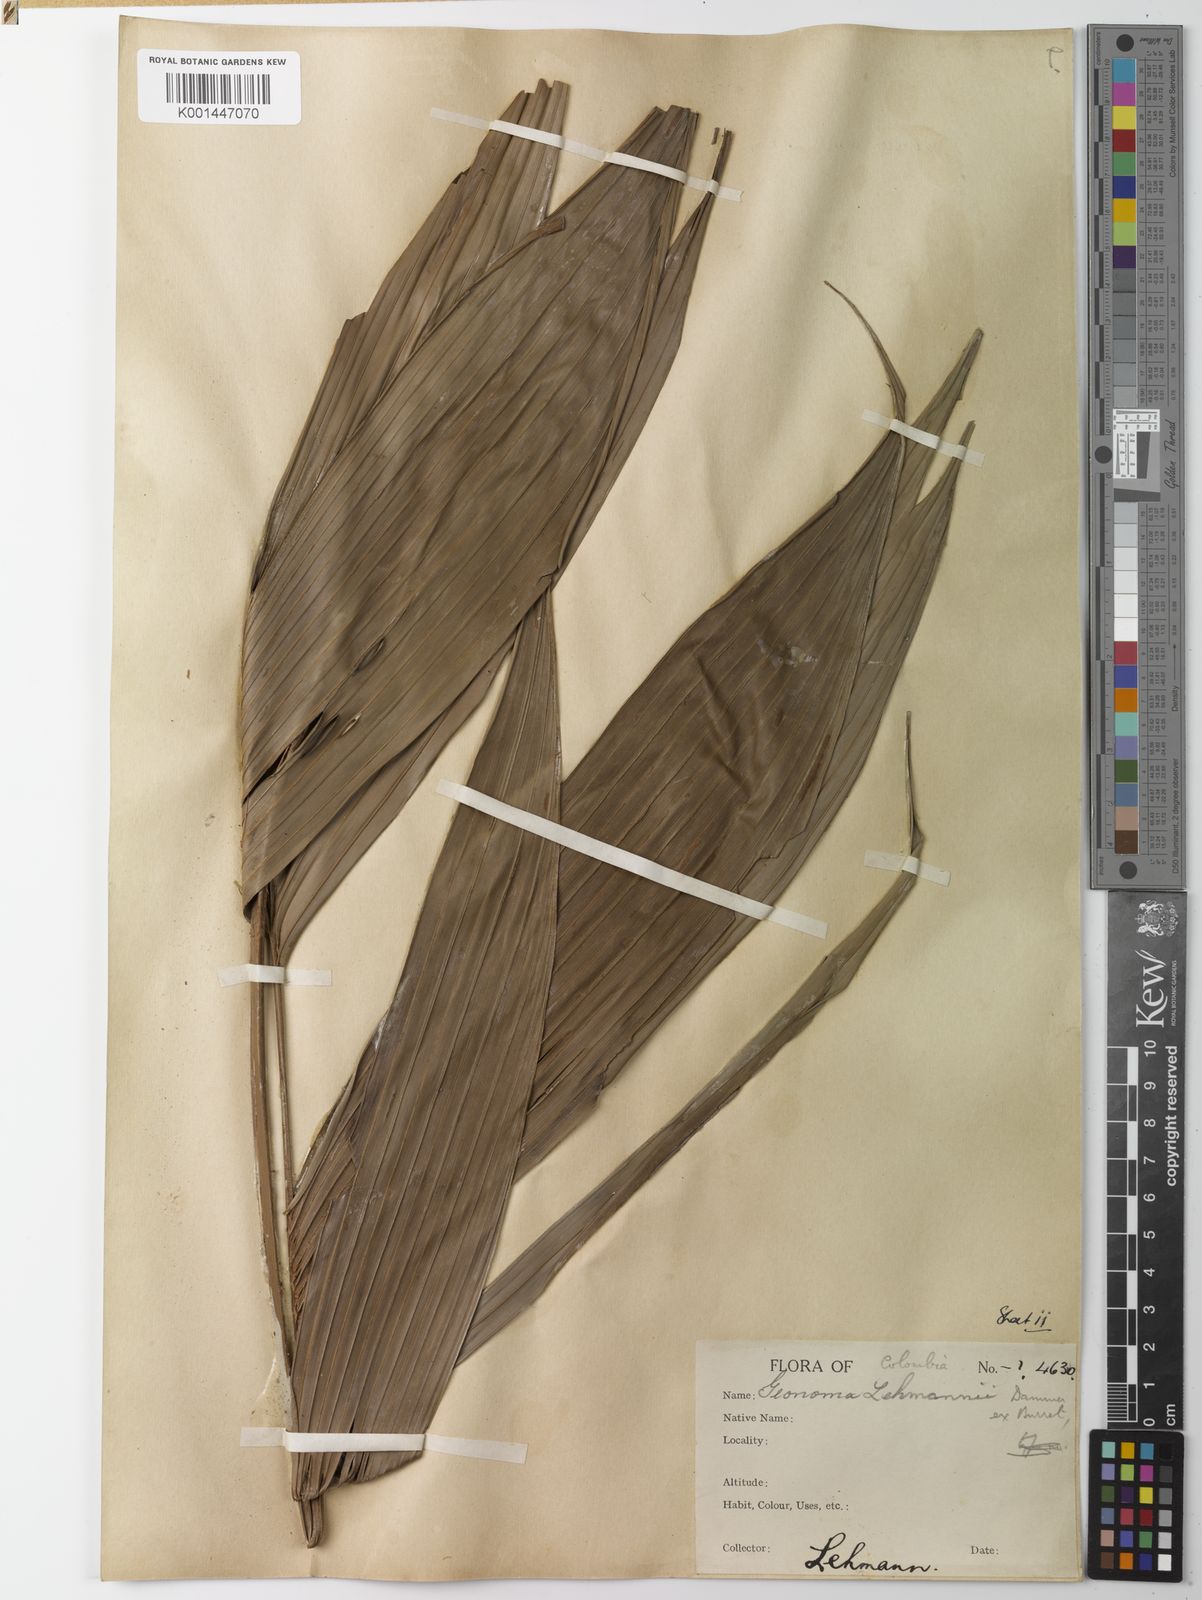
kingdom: Plantae
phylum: Tracheophyta
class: Liliopsida
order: Arecales
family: Arecaceae
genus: Geonoma
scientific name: Geonoma lehmannii
